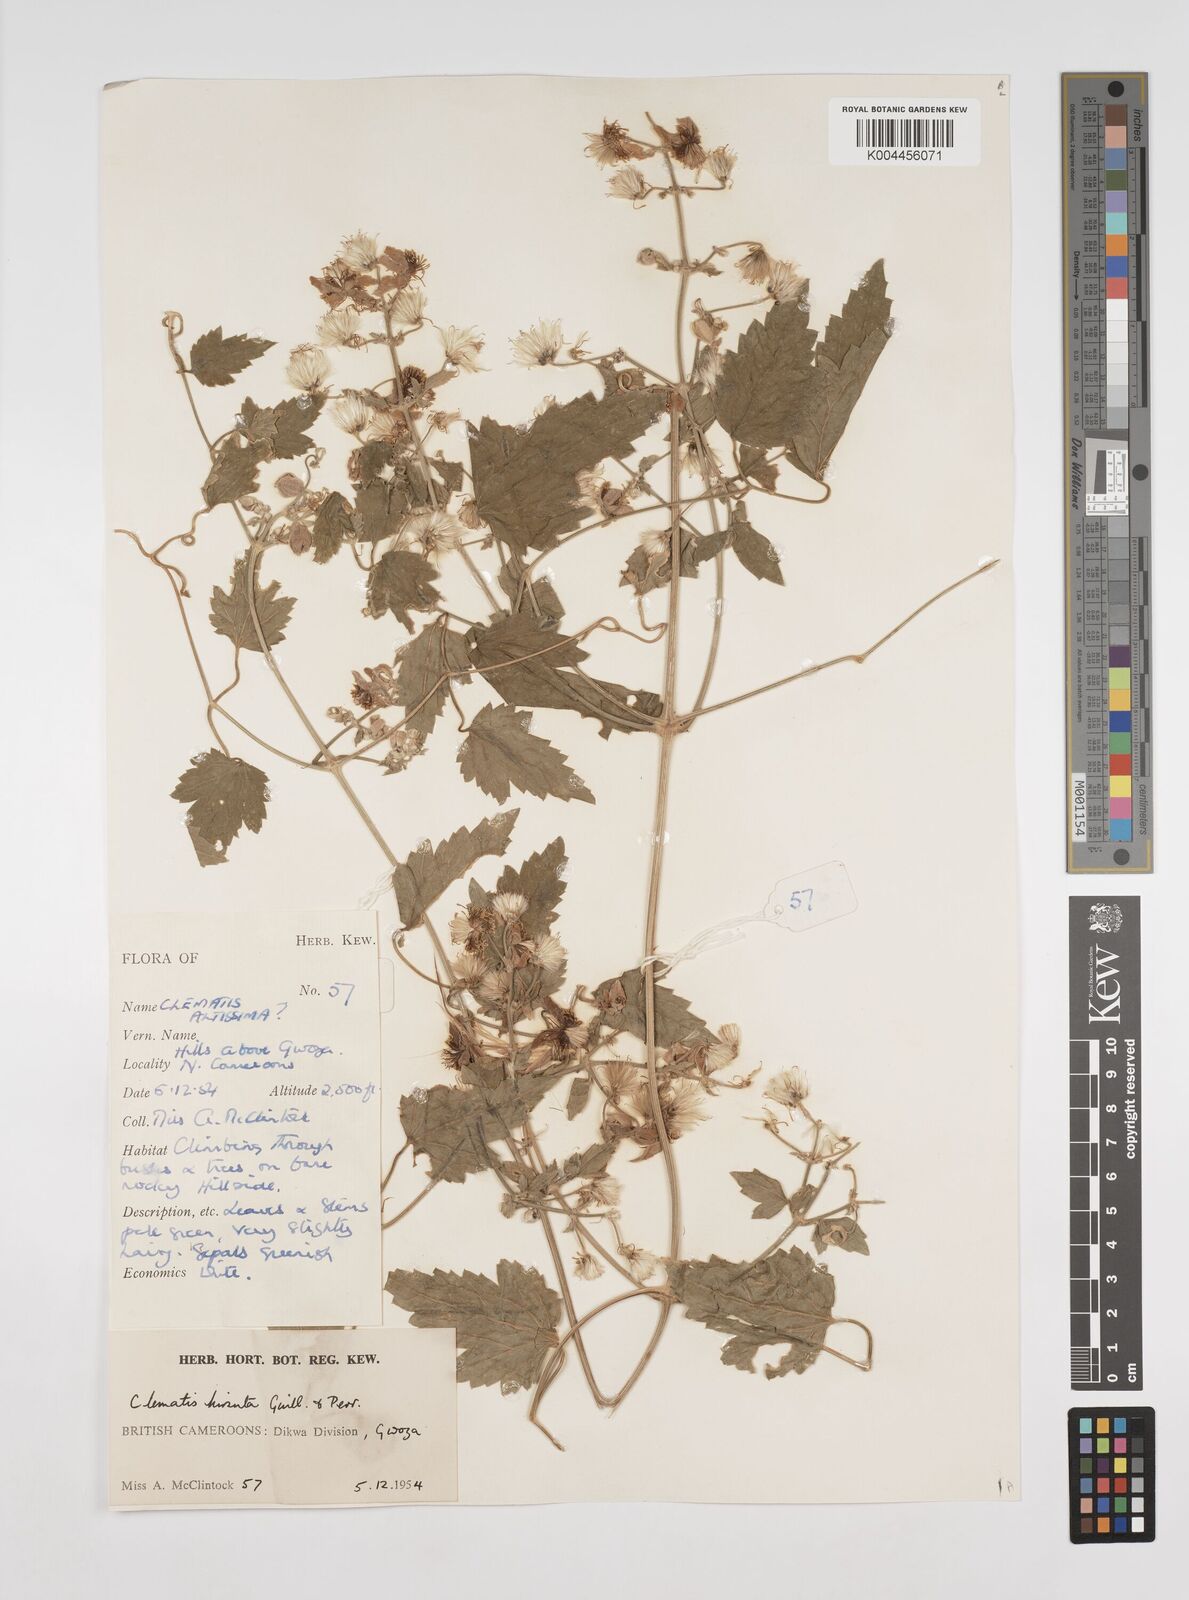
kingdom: Plantae
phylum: Tracheophyta
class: Magnoliopsida
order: Ranunculales
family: Ranunculaceae
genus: Clematis
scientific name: Clematis hirsuta
